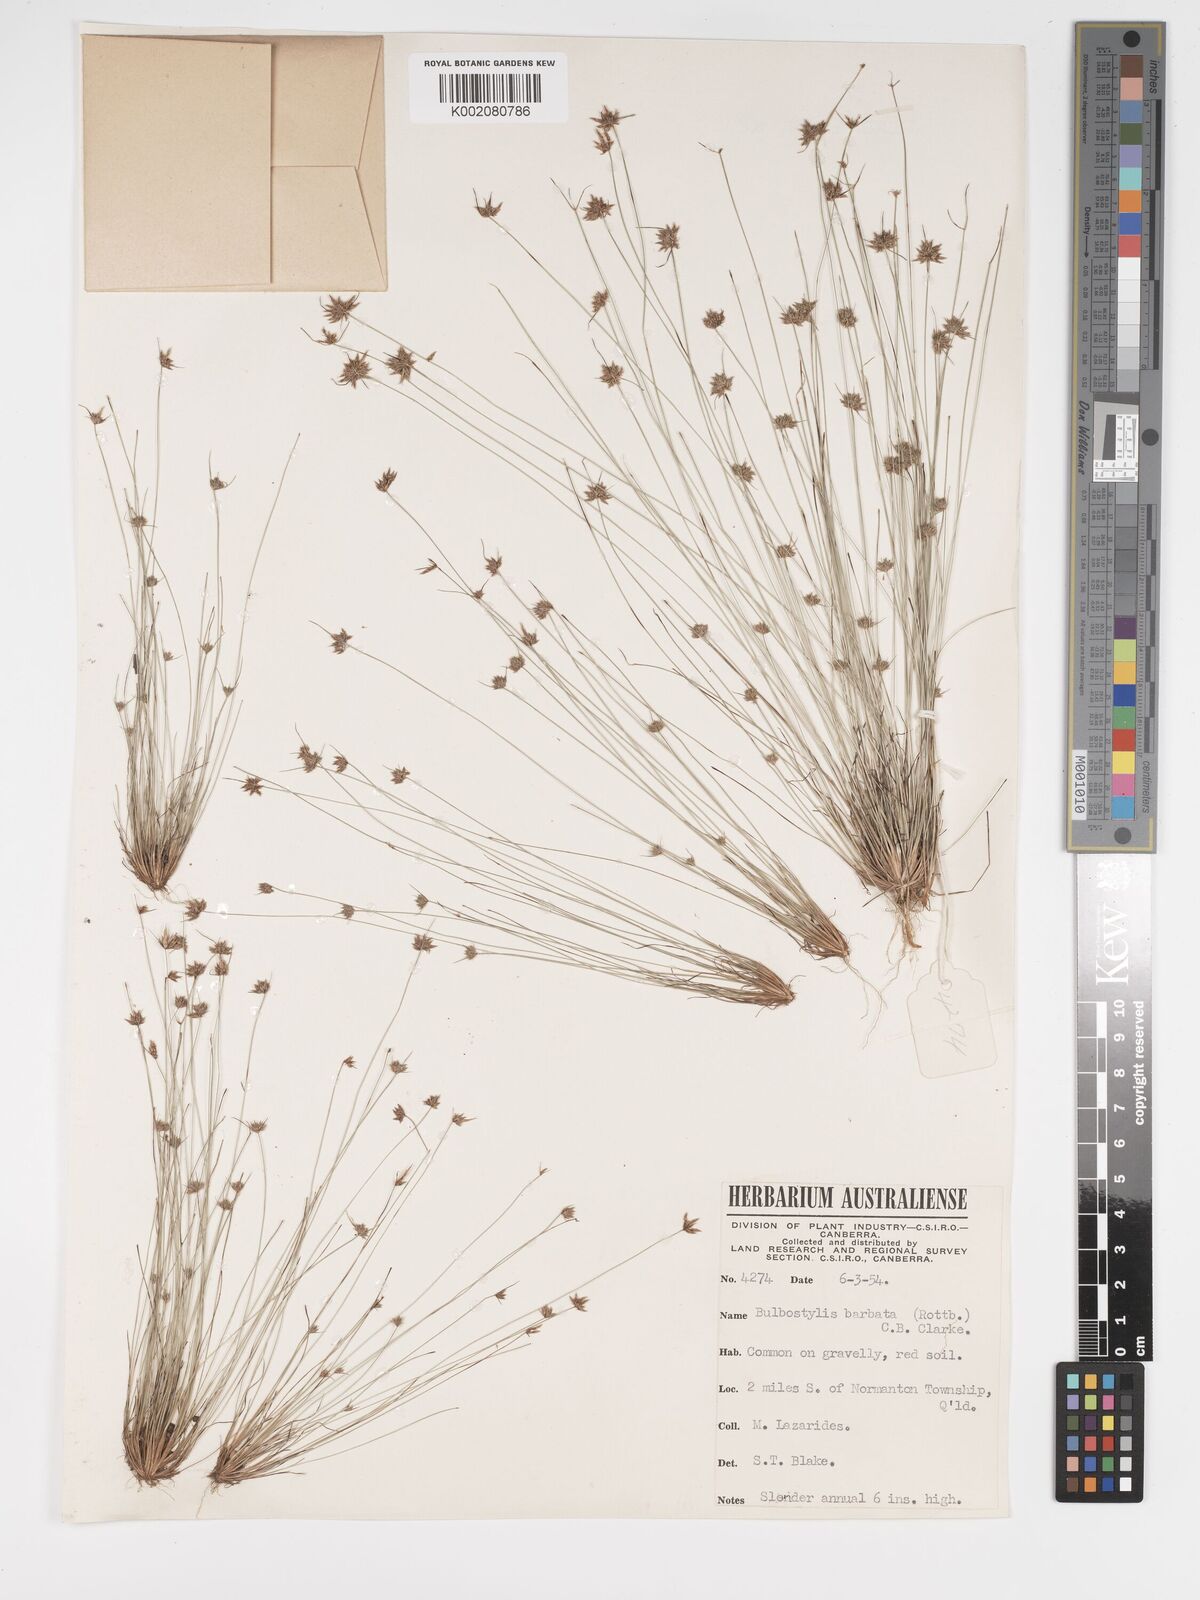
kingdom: Plantae
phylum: Tracheophyta
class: Liliopsida
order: Poales
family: Cyperaceae
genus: Bulbostylis
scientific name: Bulbostylis barbata
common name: Watergrass
